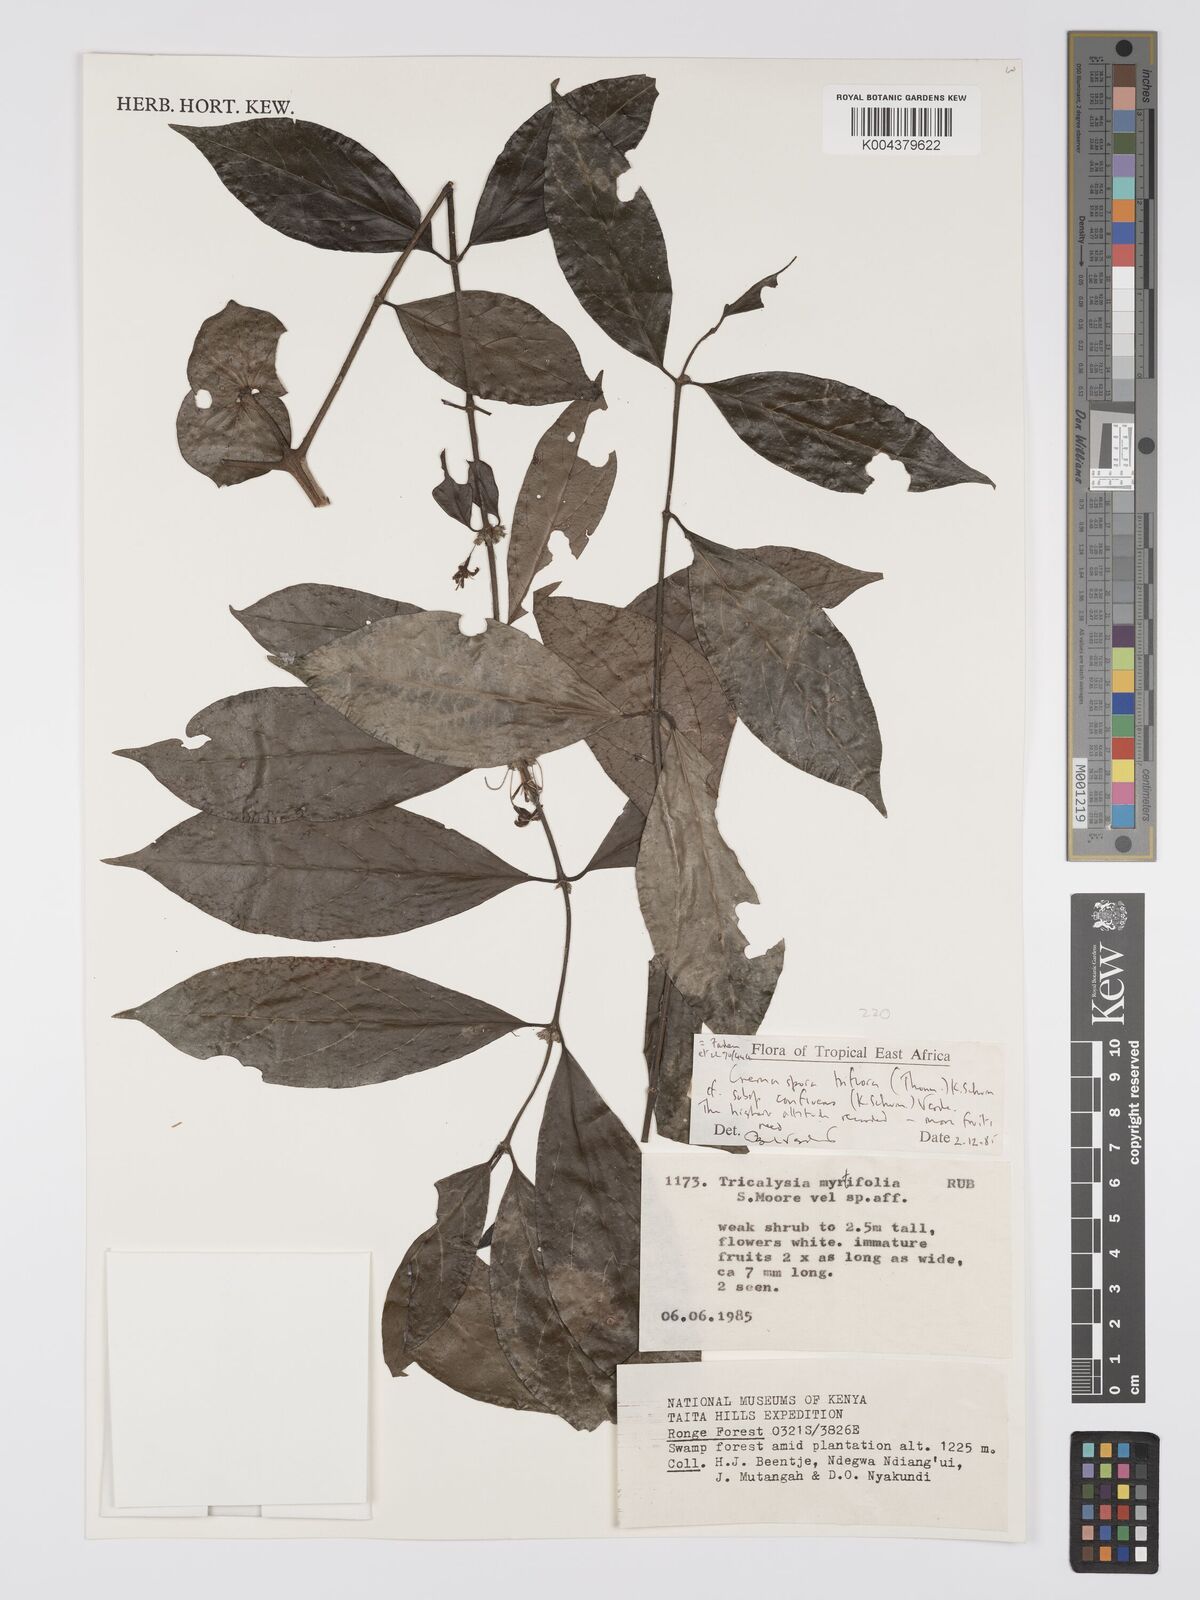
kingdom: Plantae
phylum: Tracheophyta
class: Magnoliopsida
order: Gentianales
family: Rubiaceae
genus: Cremaspora
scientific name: Cremaspora triflora
